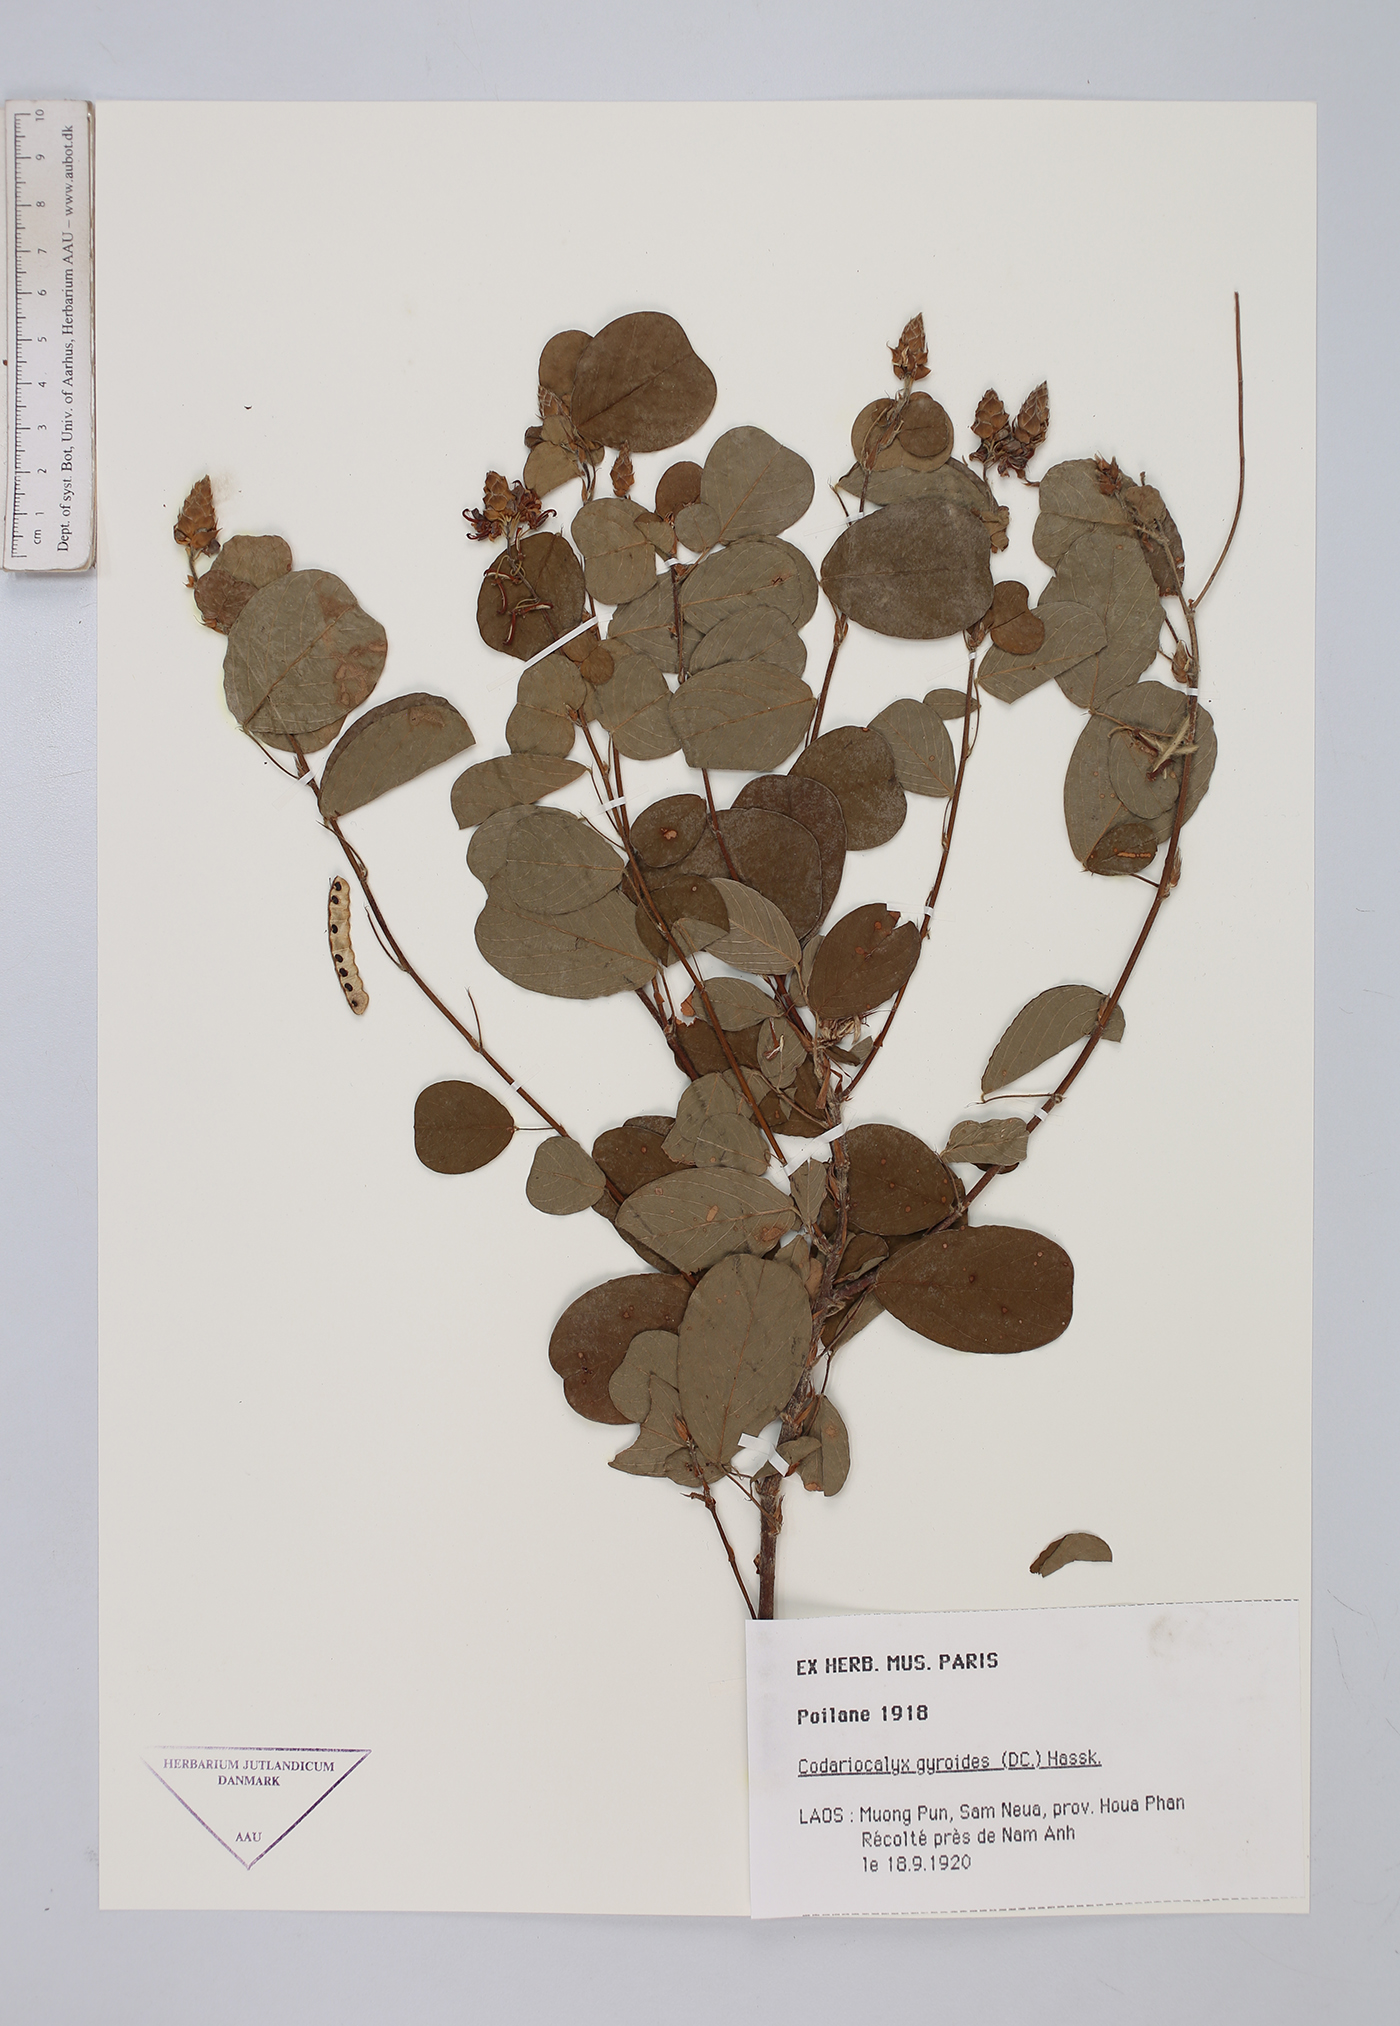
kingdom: Plantae
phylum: Tracheophyta
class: Magnoliopsida
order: Fabales
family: Fabaceae
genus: Codariocalyx
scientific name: Codariocalyx gyroides
